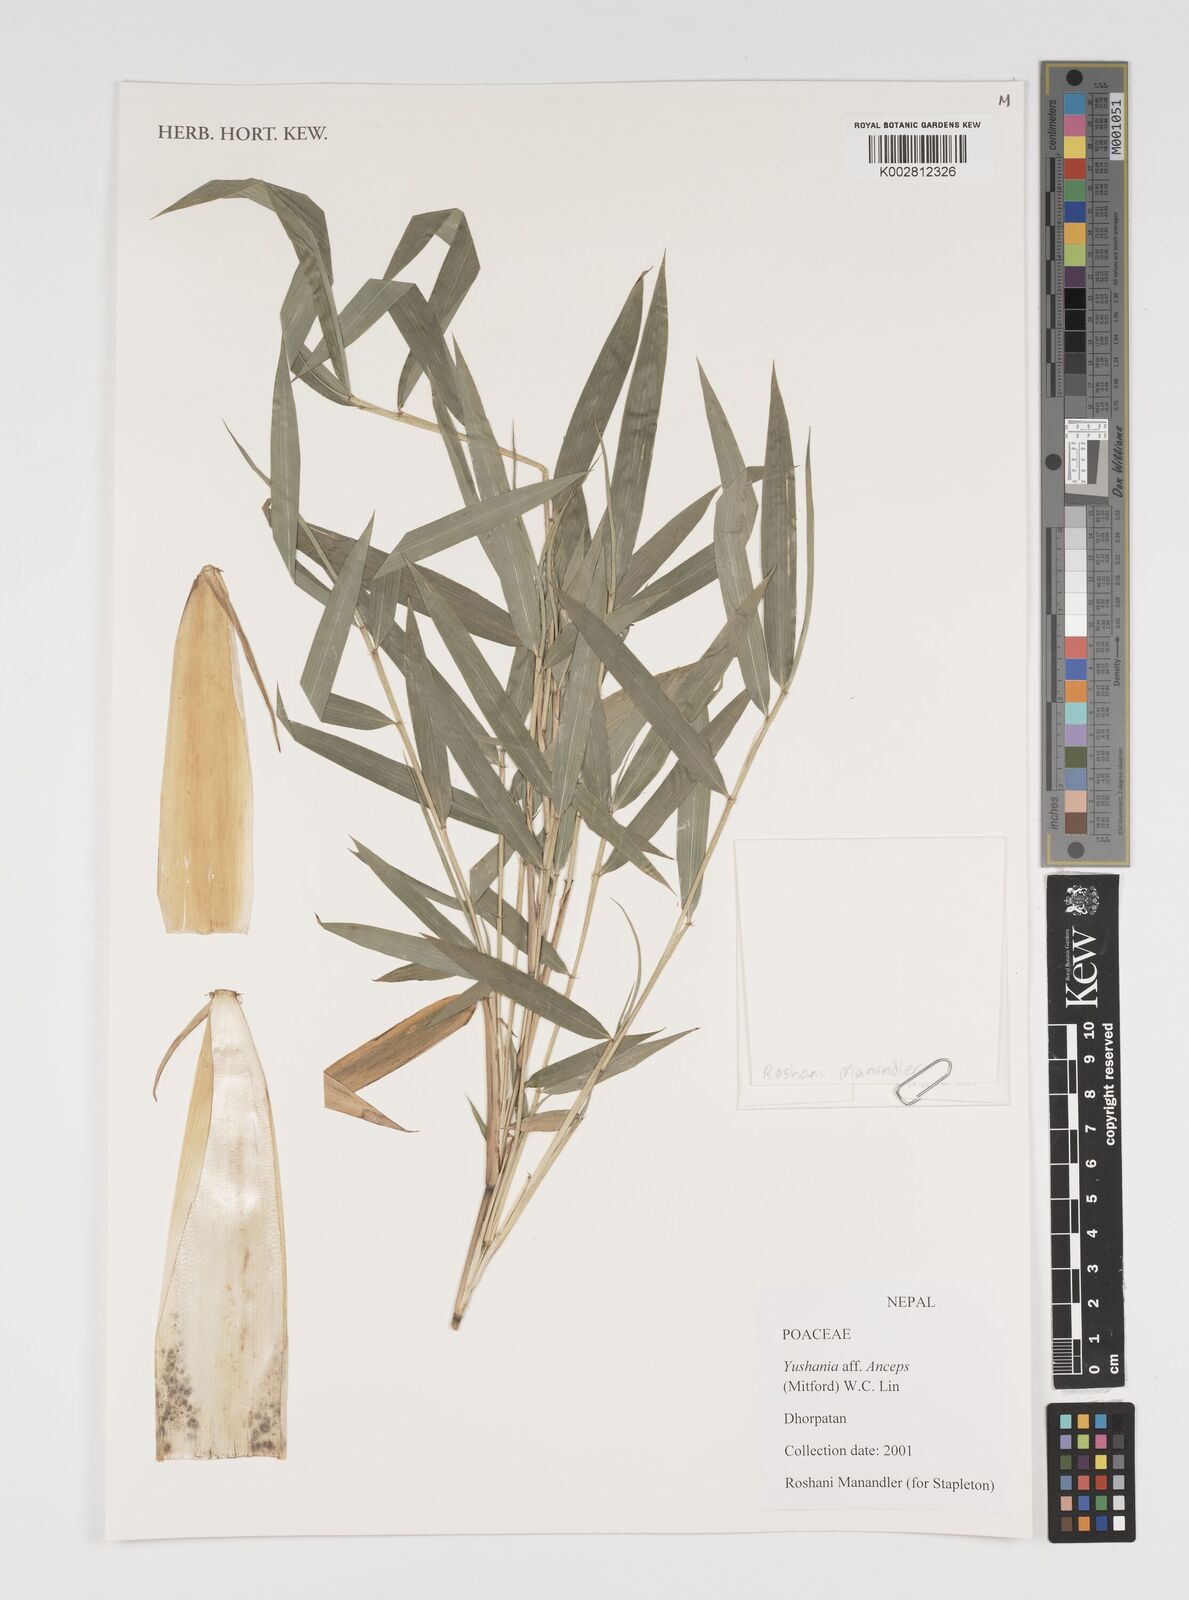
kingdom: Plantae
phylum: Tracheophyta
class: Liliopsida
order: Poales
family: Poaceae
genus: Yushania
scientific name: Yushania anceps
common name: Indian fountain-bamboo
